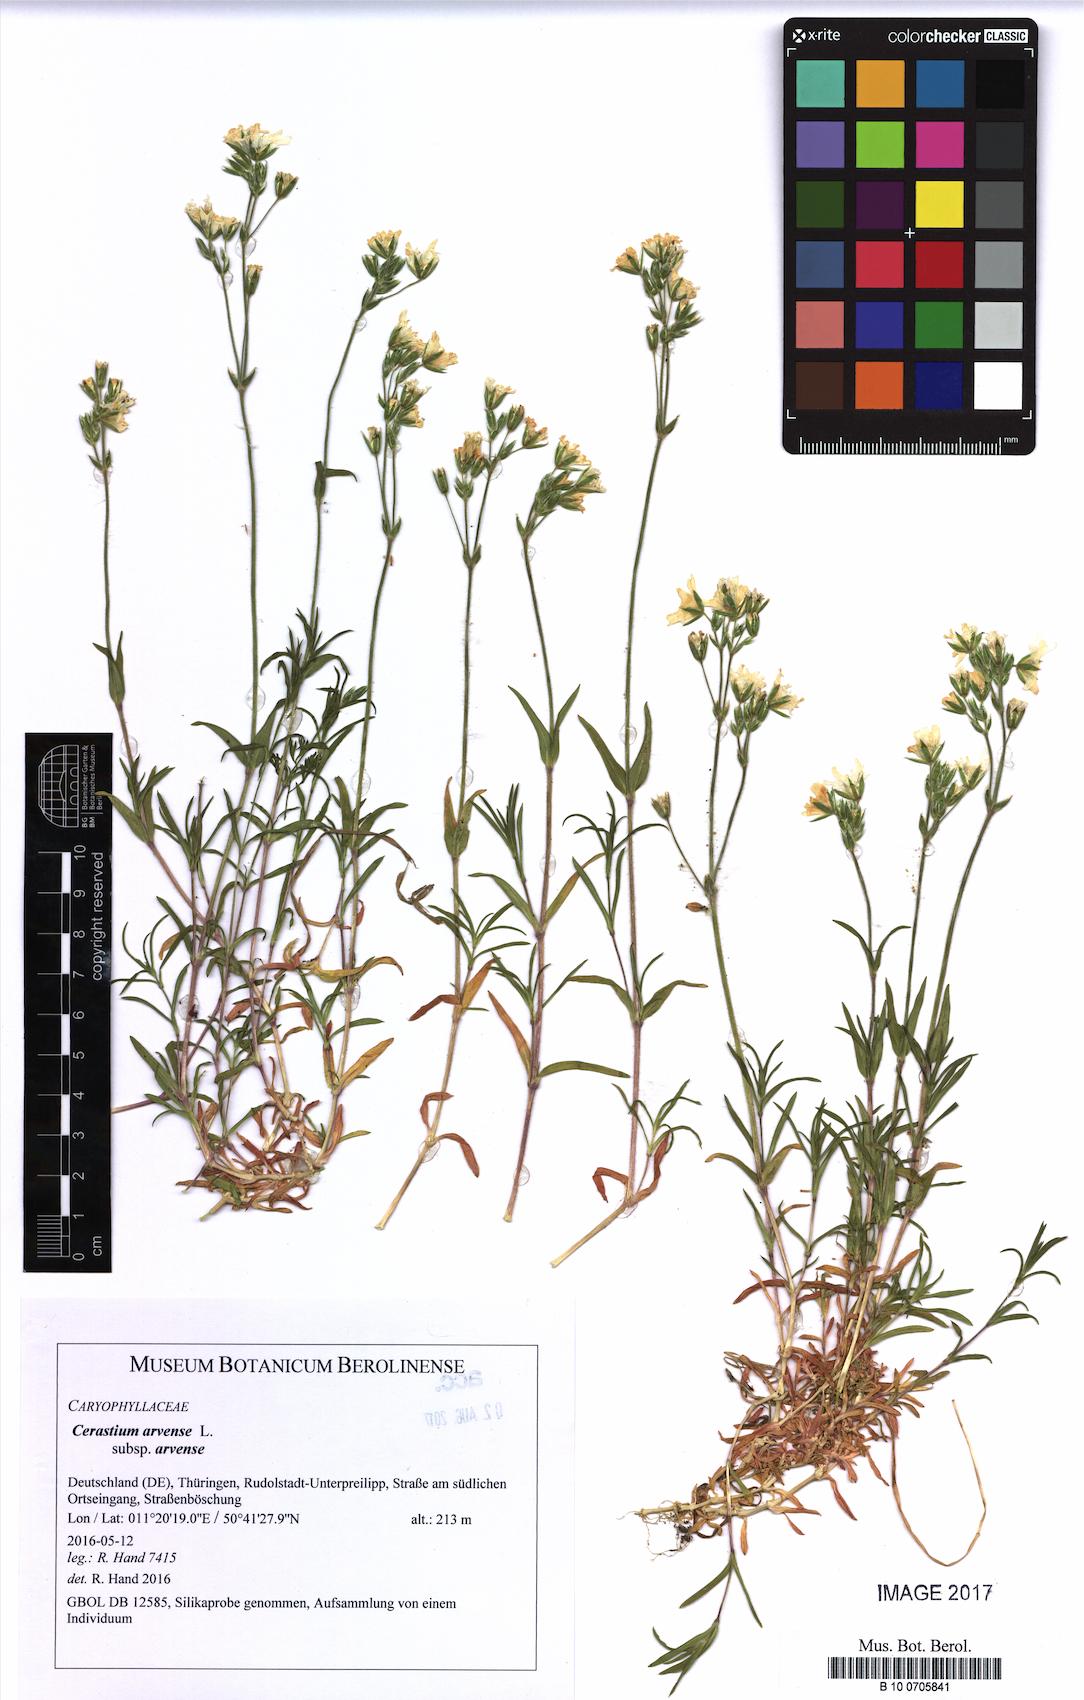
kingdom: Plantae
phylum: Tracheophyta
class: Magnoliopsida
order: Caryophyllales
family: Caryophyllaceae
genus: Cerastium
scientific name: Cerastium arvense
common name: Field mouse-ear
